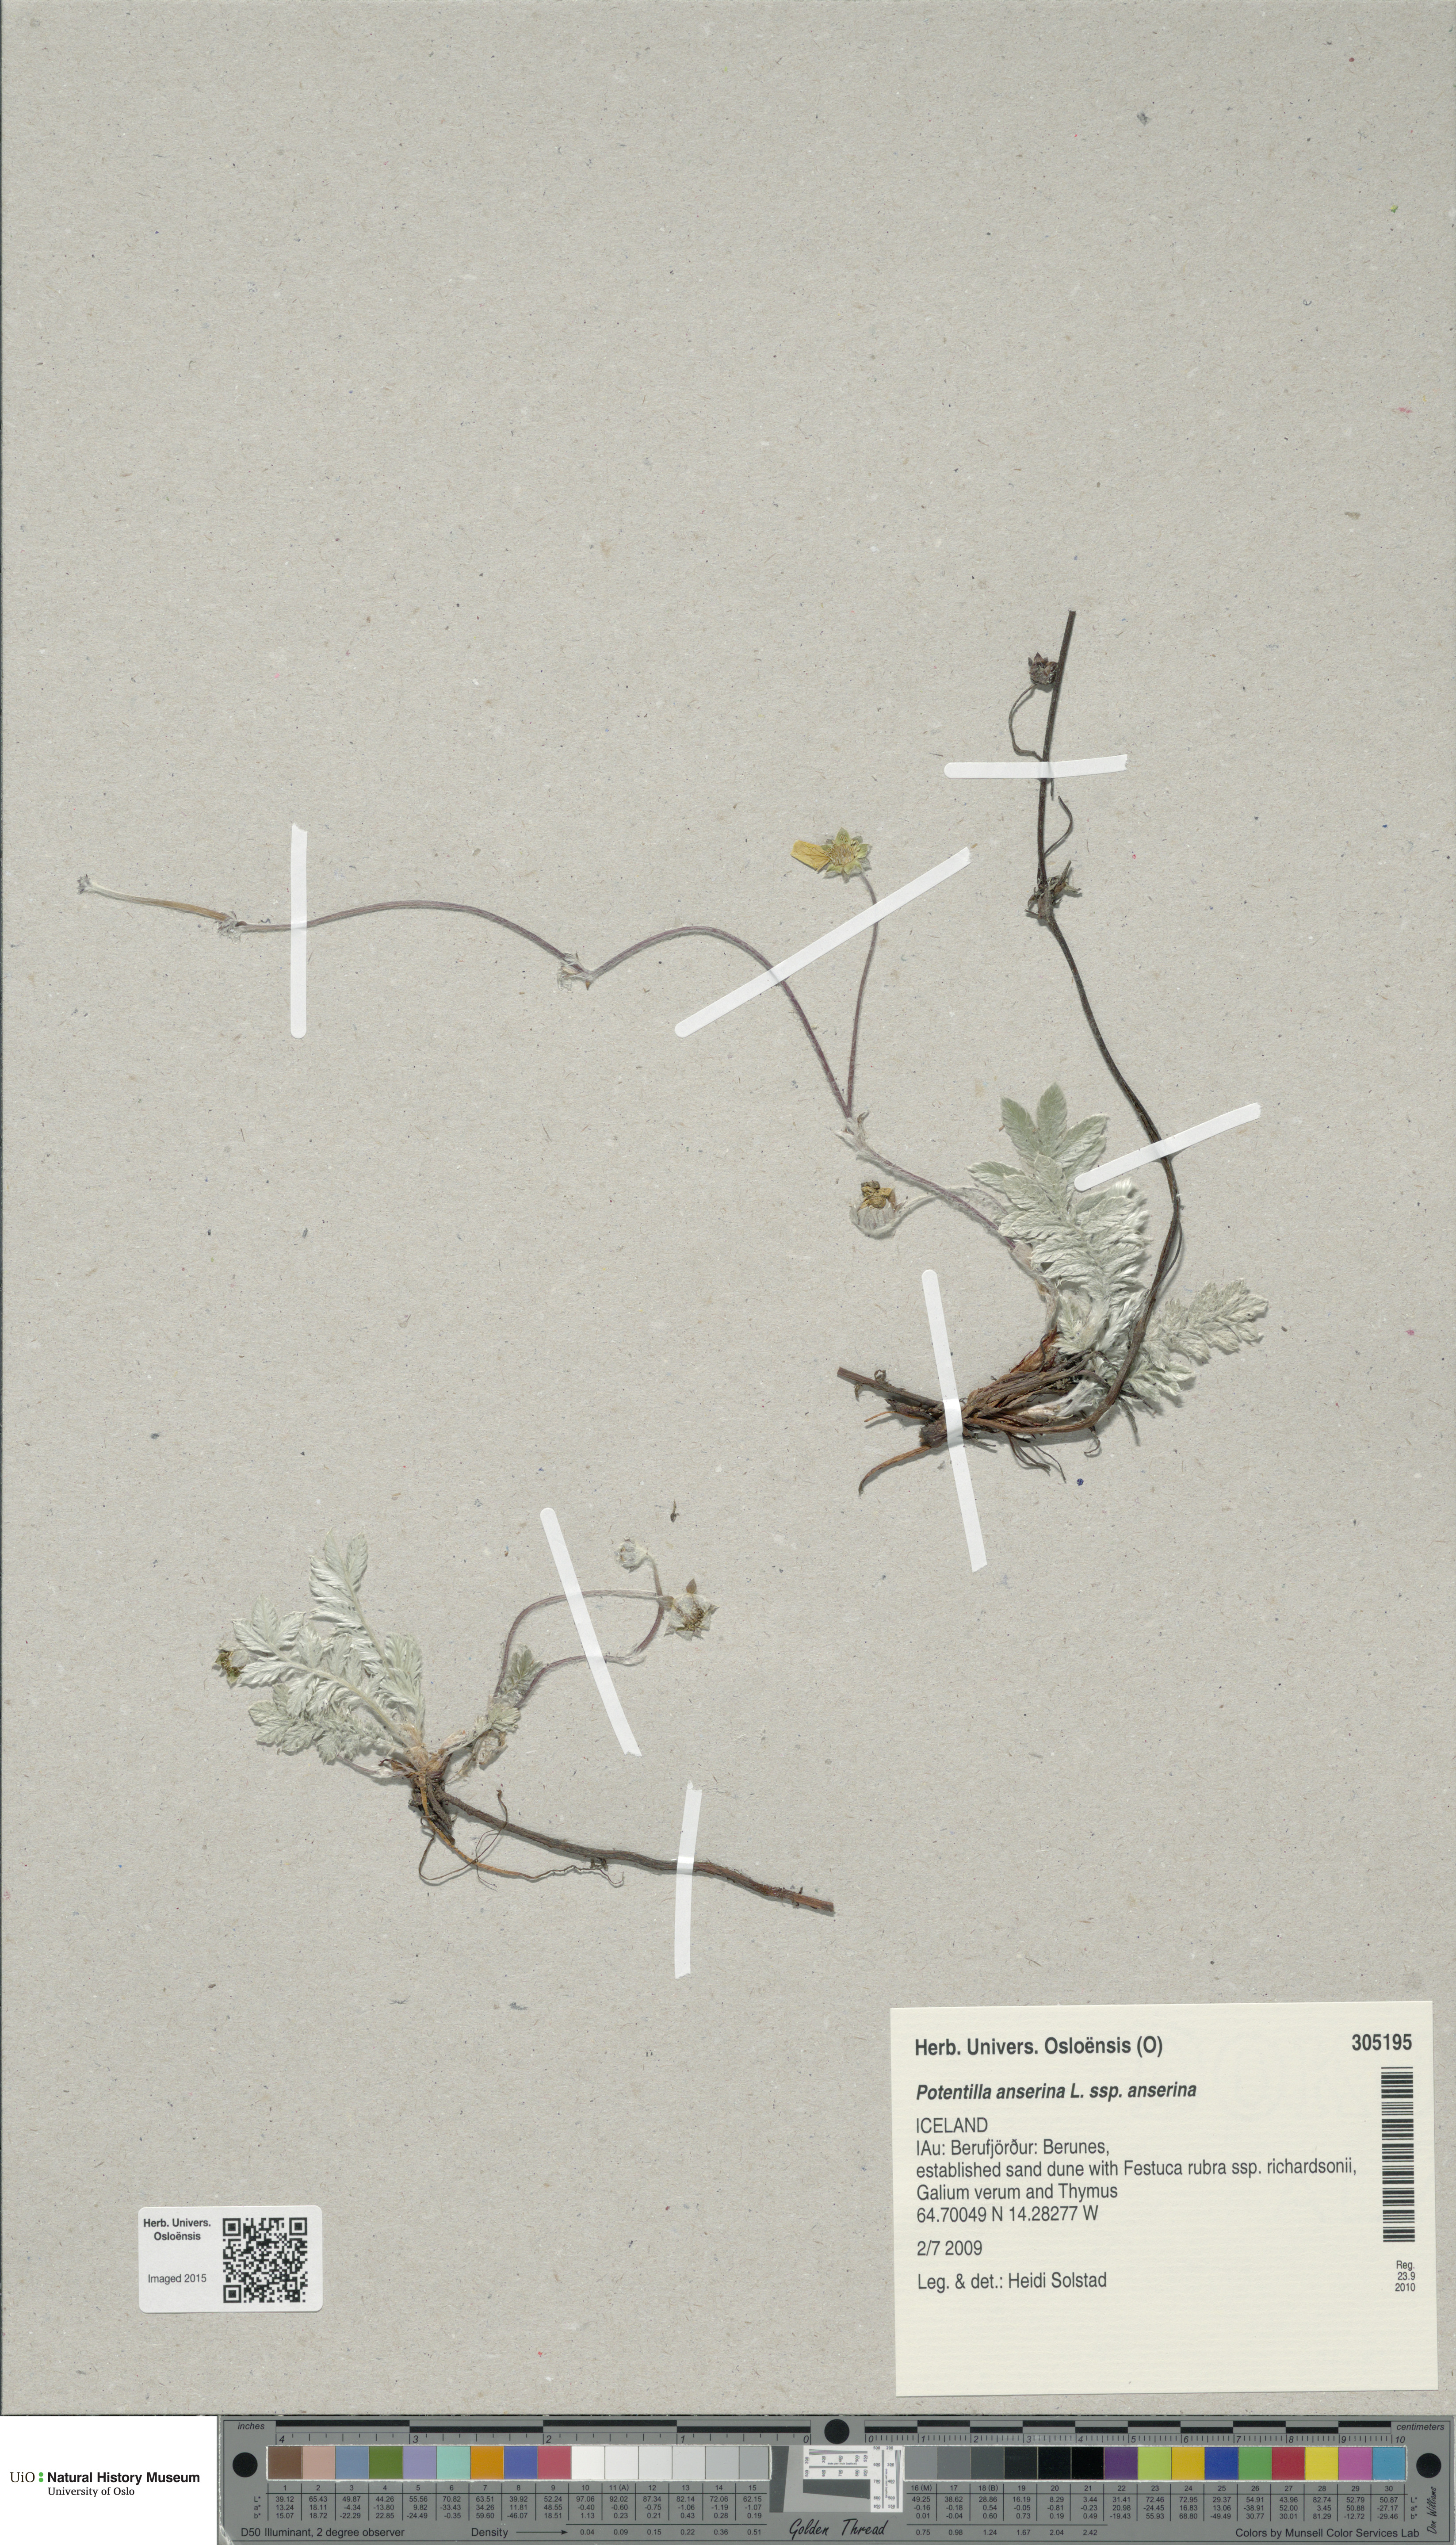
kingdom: Plantae
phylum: Tracheophyta
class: Magnoliopsida
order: Rosales
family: Rosaceae
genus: Argentina
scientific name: Argentina anserina
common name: Common silverweed
